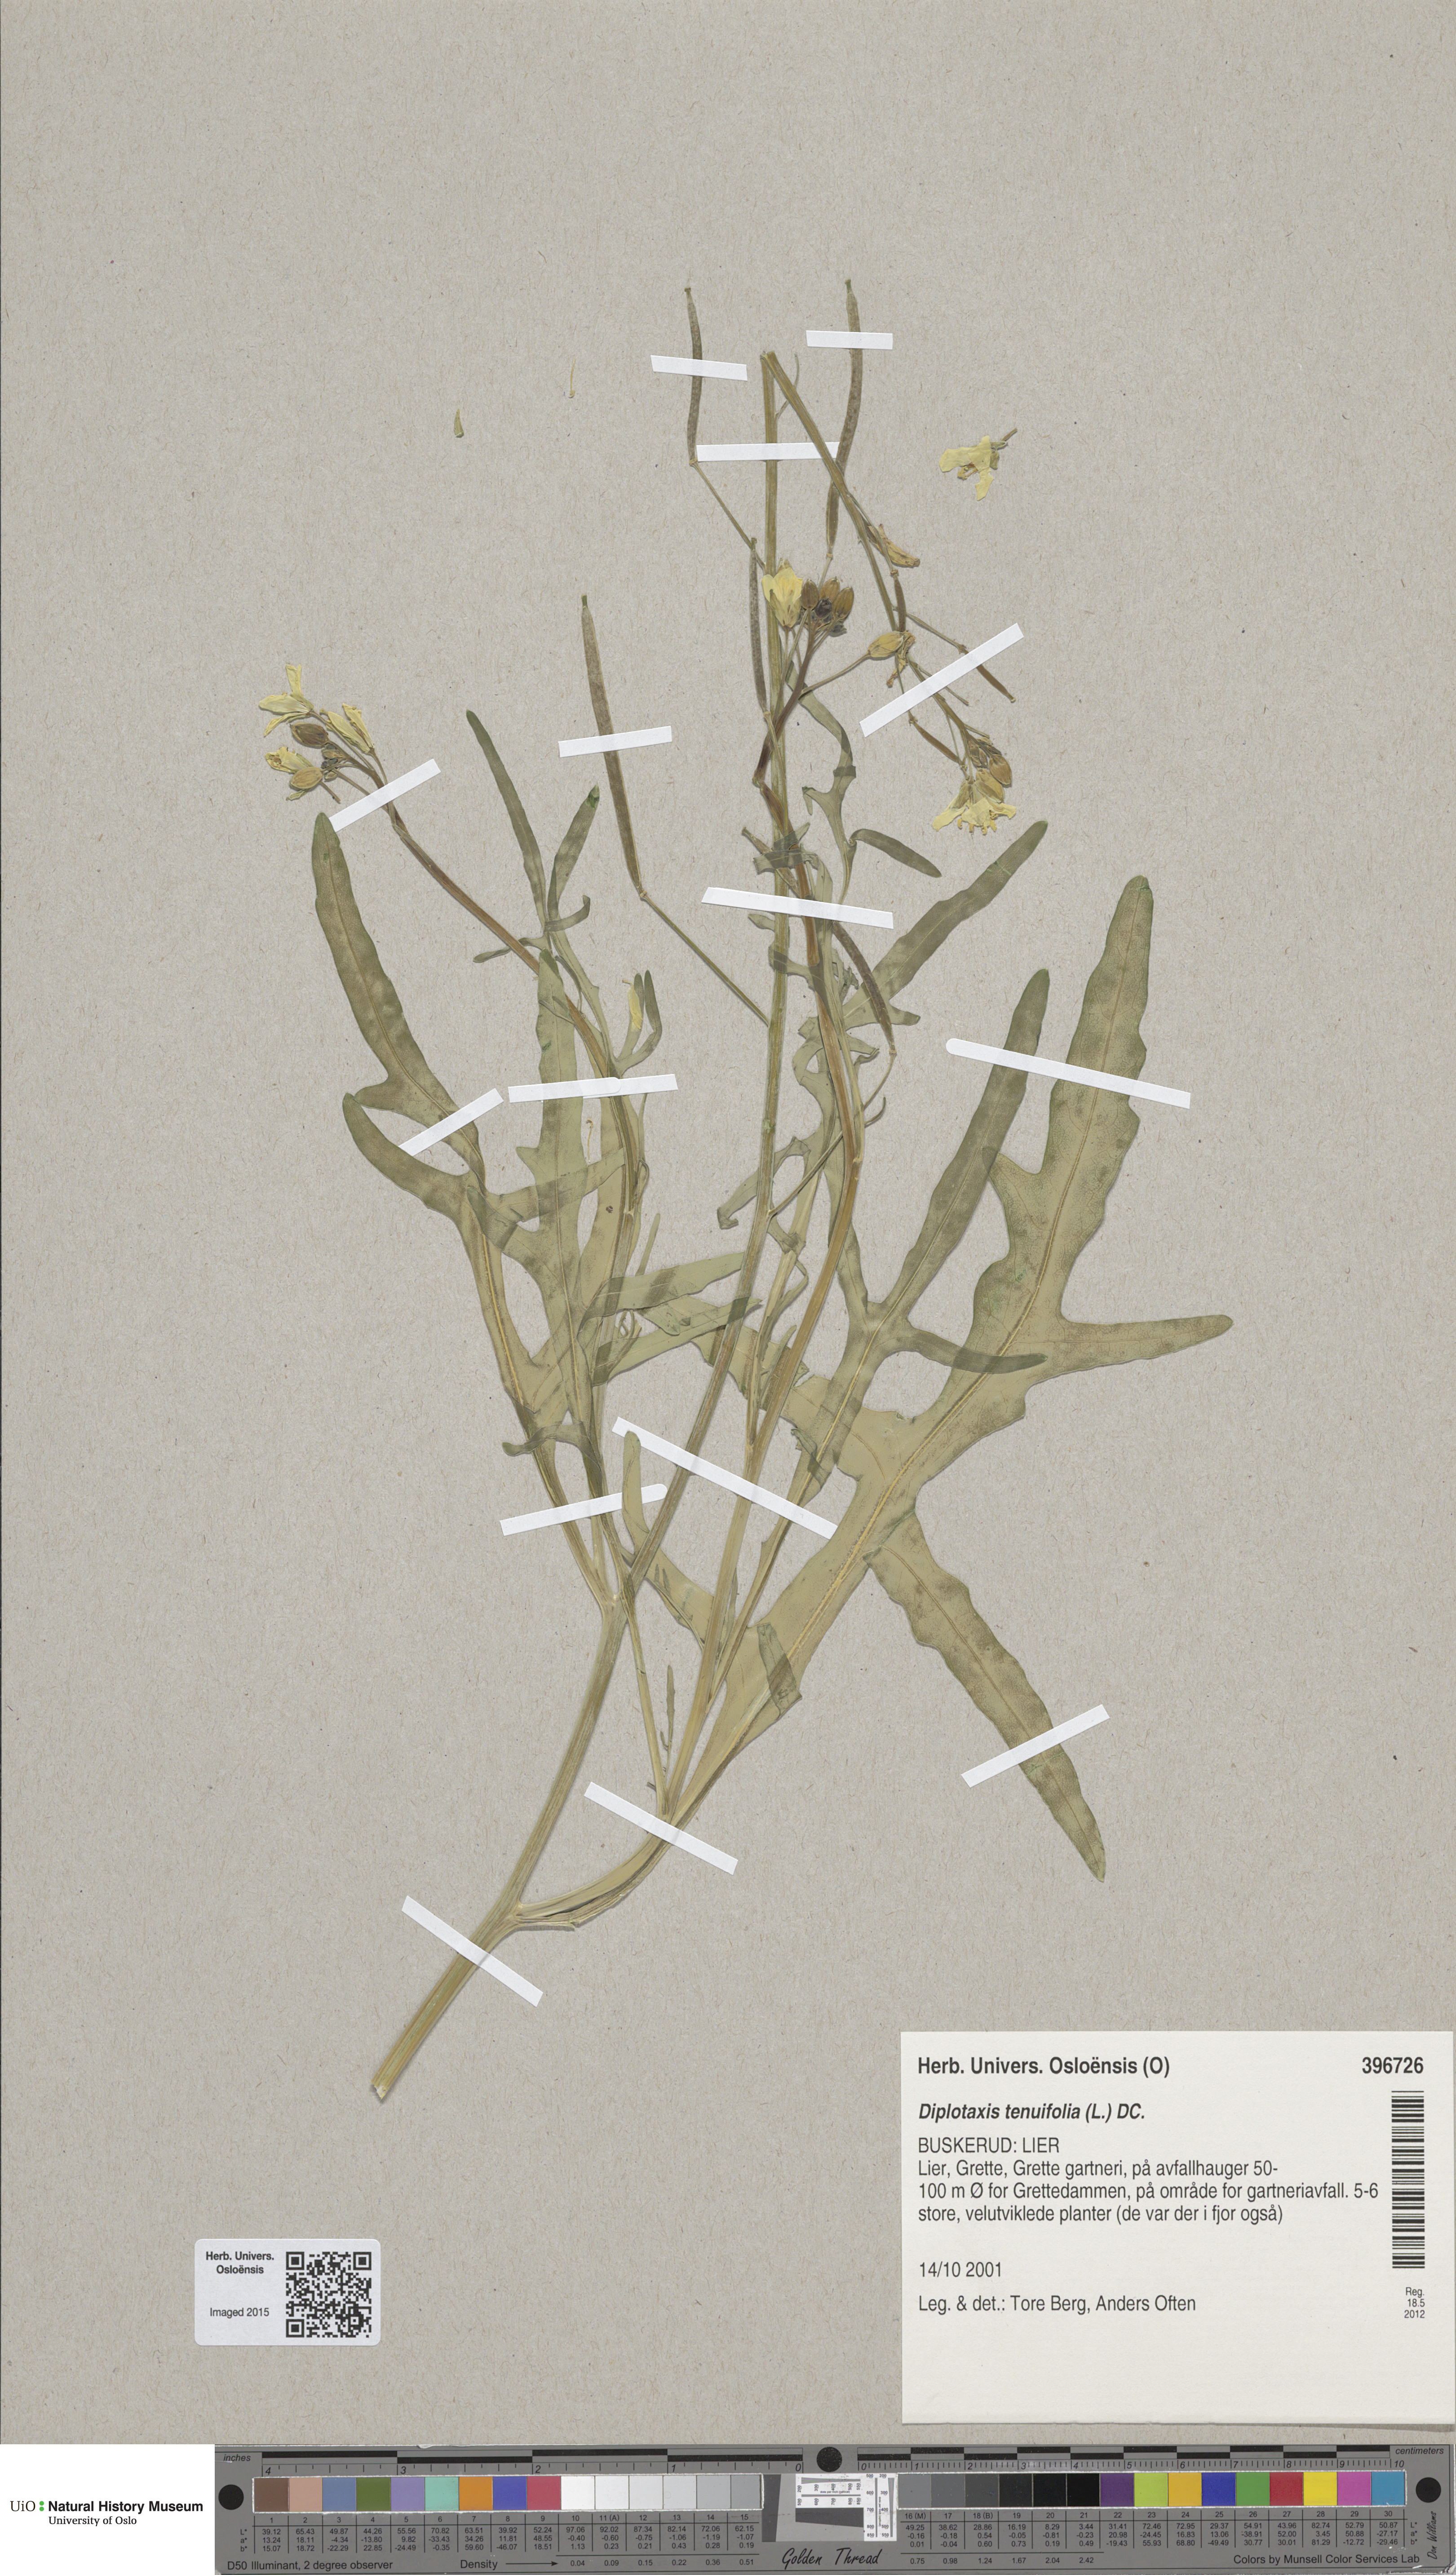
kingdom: Plantae
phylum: Tracheophyta
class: Magnoliopsida
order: Brassicales
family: Brassicaceae
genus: Diplotaxis
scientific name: Diplotaxis tenuifolia
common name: Perennial wall-rocket
